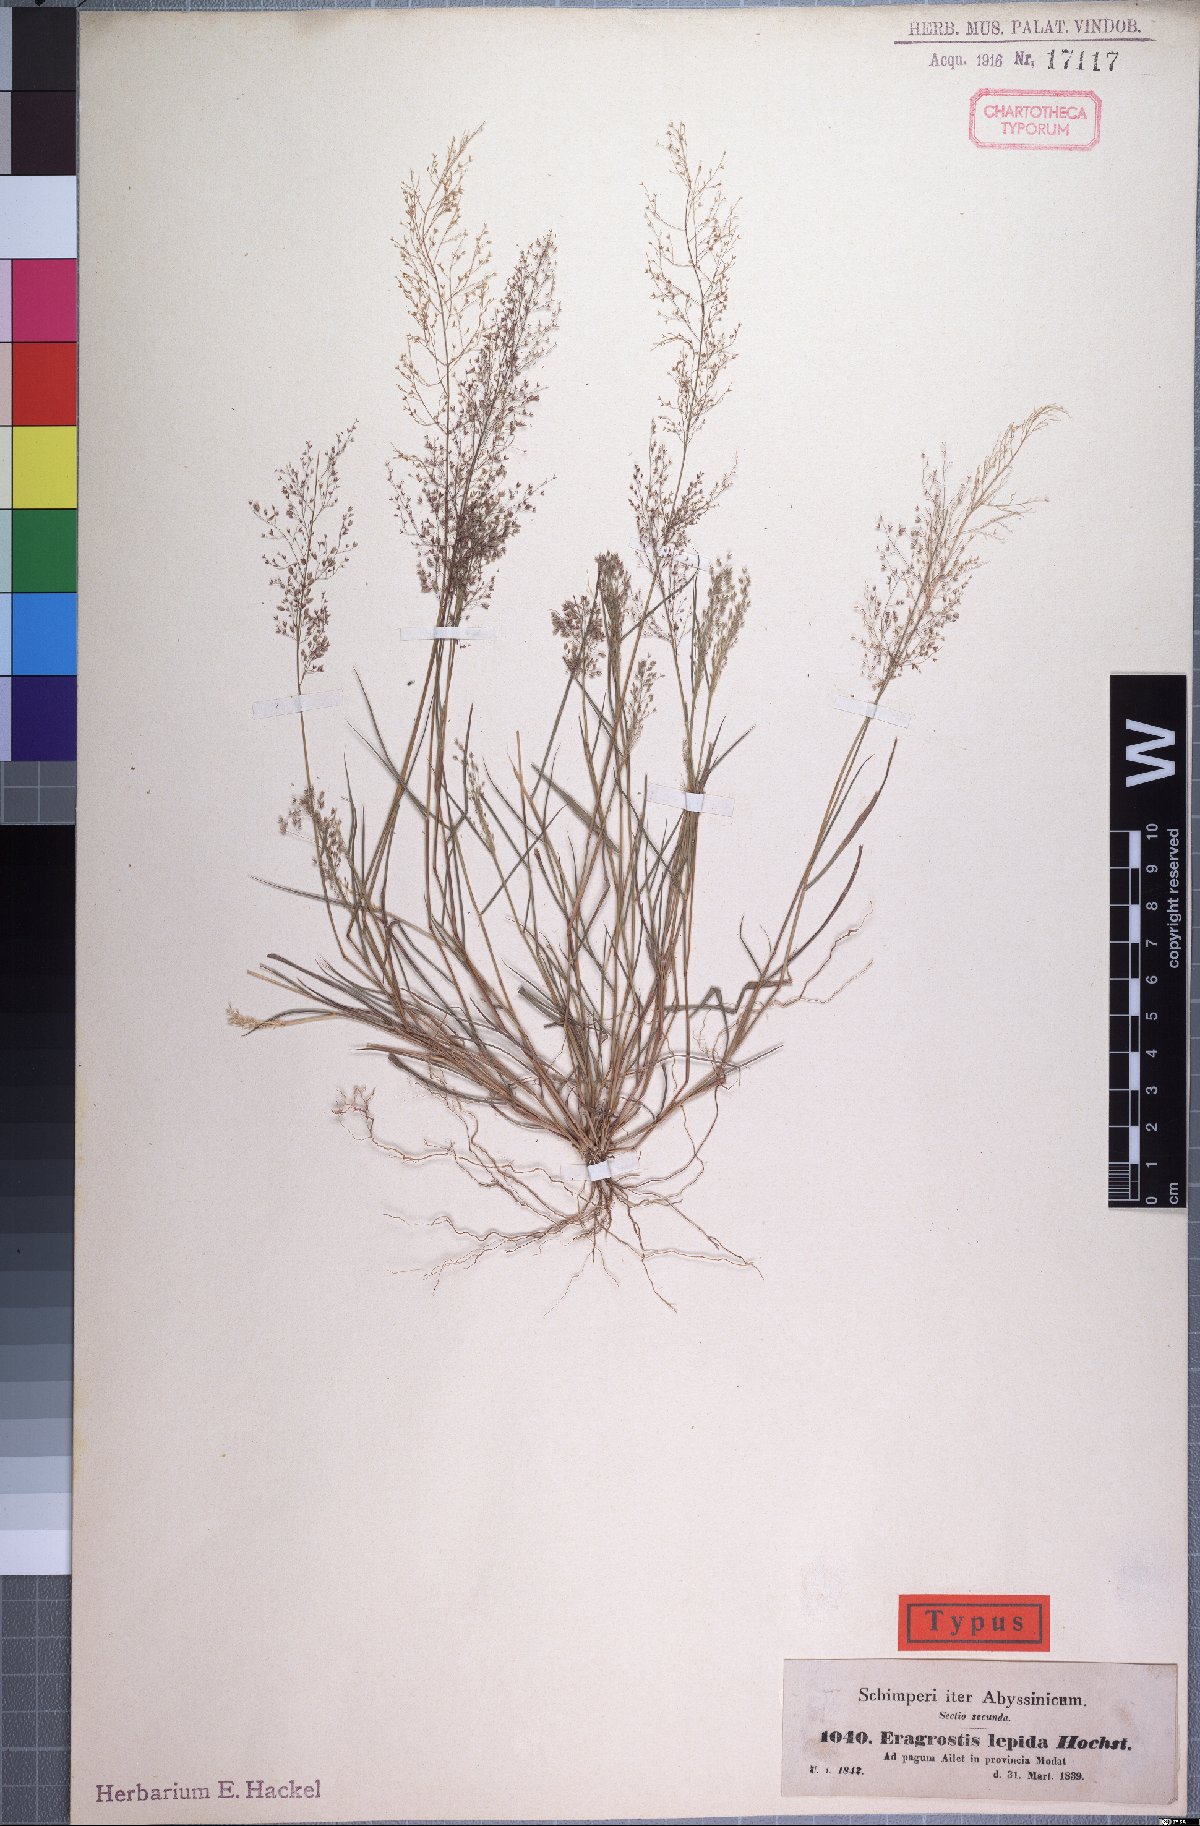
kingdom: Plantae
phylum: Tracheophyta
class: Liliopsida
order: Poales
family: Poaceae
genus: Eragrostis
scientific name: Eragrostis lepida
